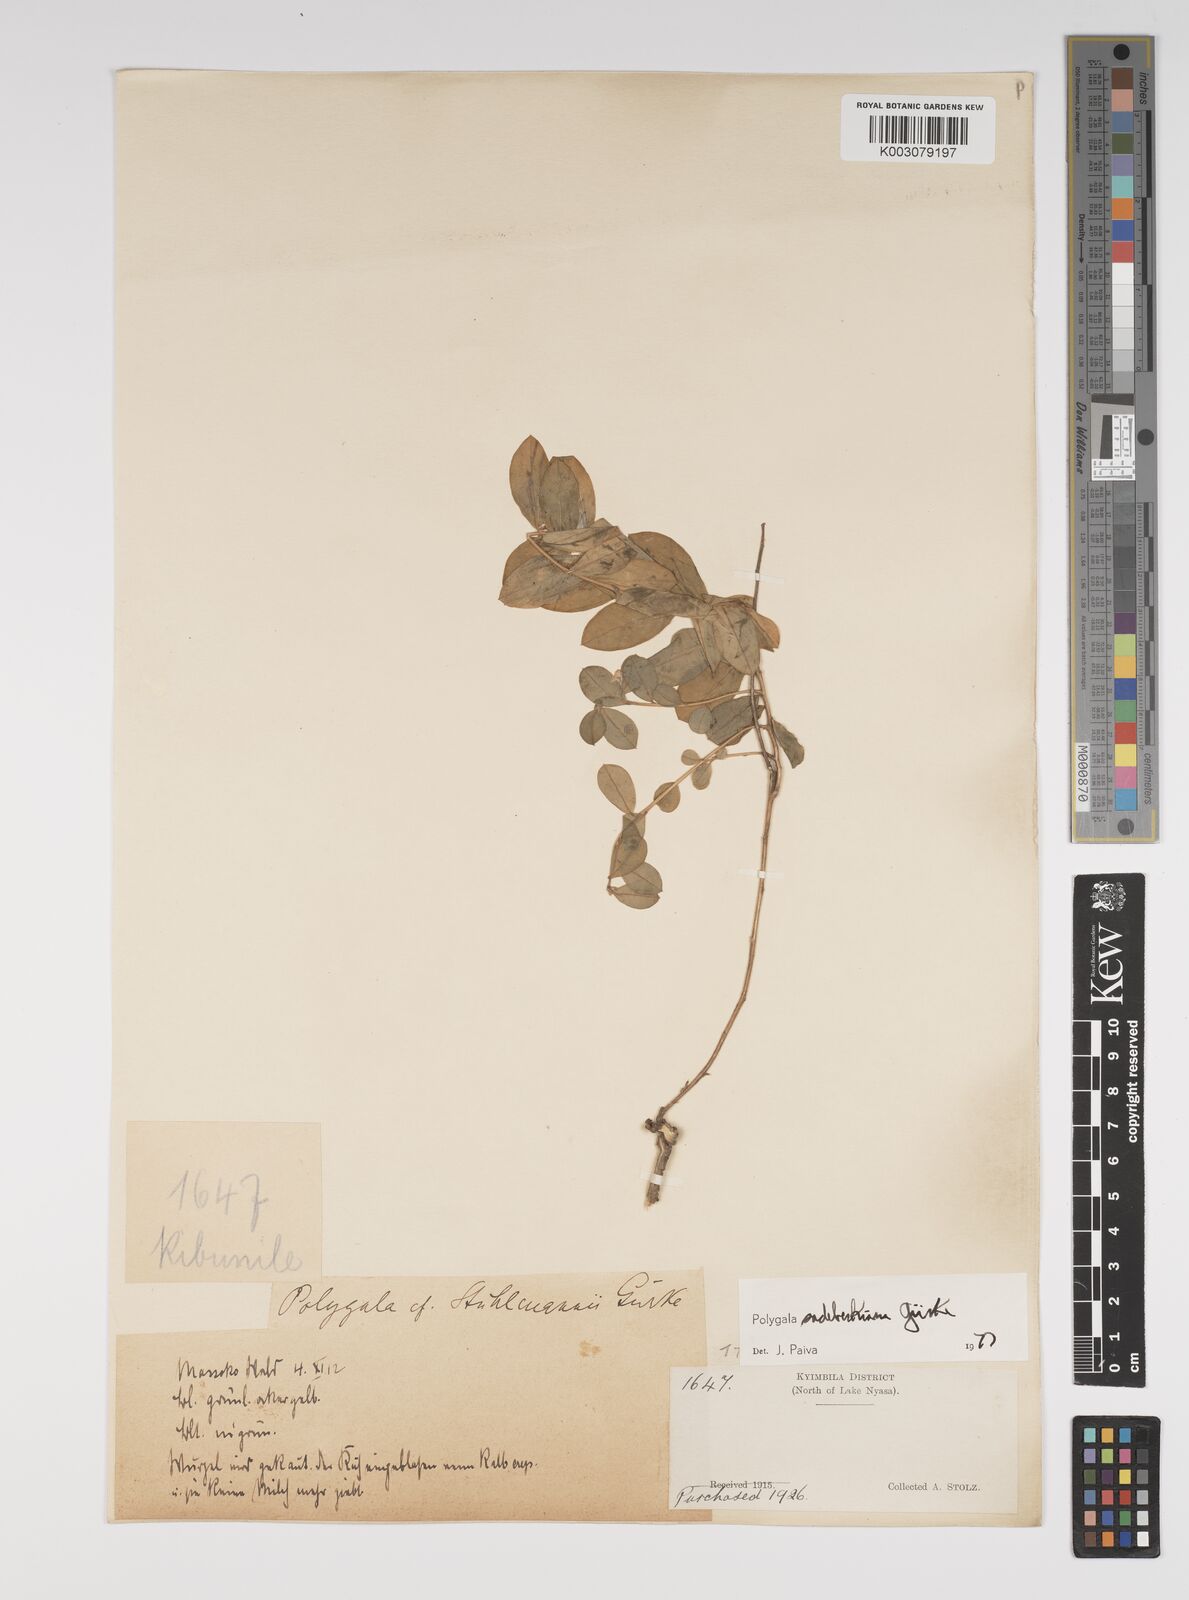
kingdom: Plantae
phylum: Tracheophyta
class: Magnoliopsida
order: Fabales
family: Polygalaceae
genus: Polygala
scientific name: Polygala sadebeckiana
